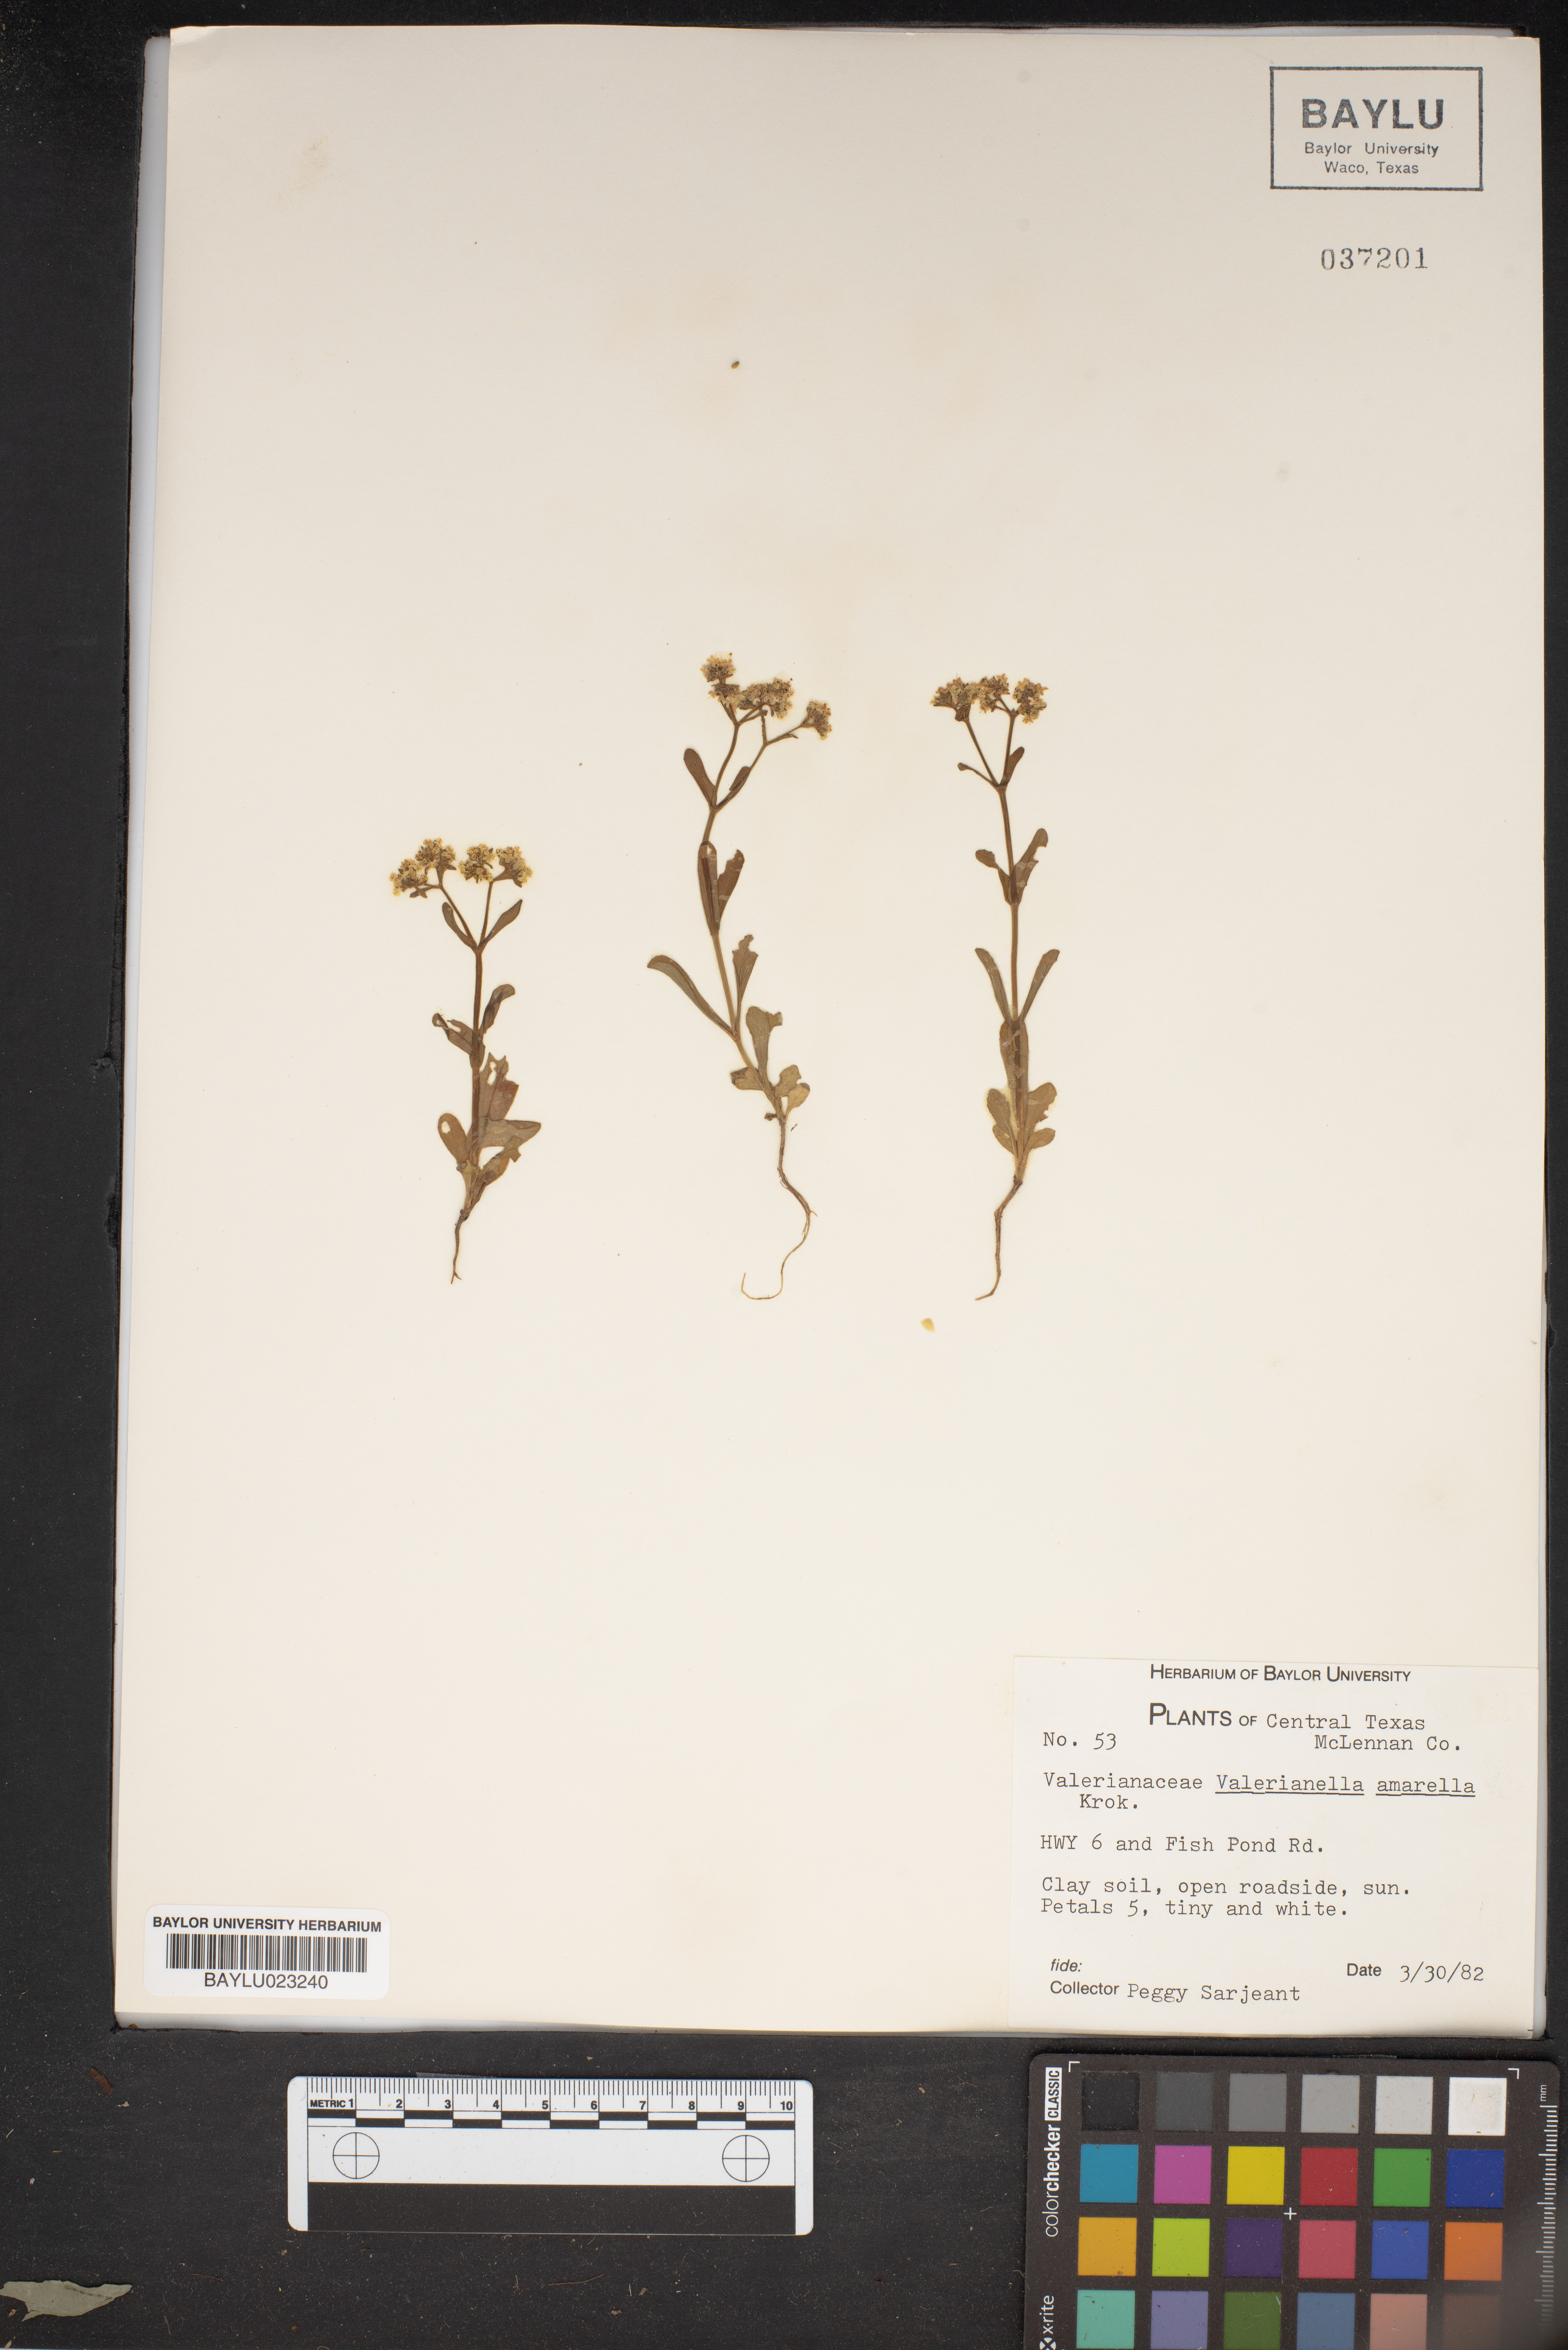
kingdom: Plantae
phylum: Tracheophyta
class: Magnoliopsida
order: Dipsacales
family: Caprifoliaceae
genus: Valerianella
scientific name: Valerianella amarella
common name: Hariy cornsalad
